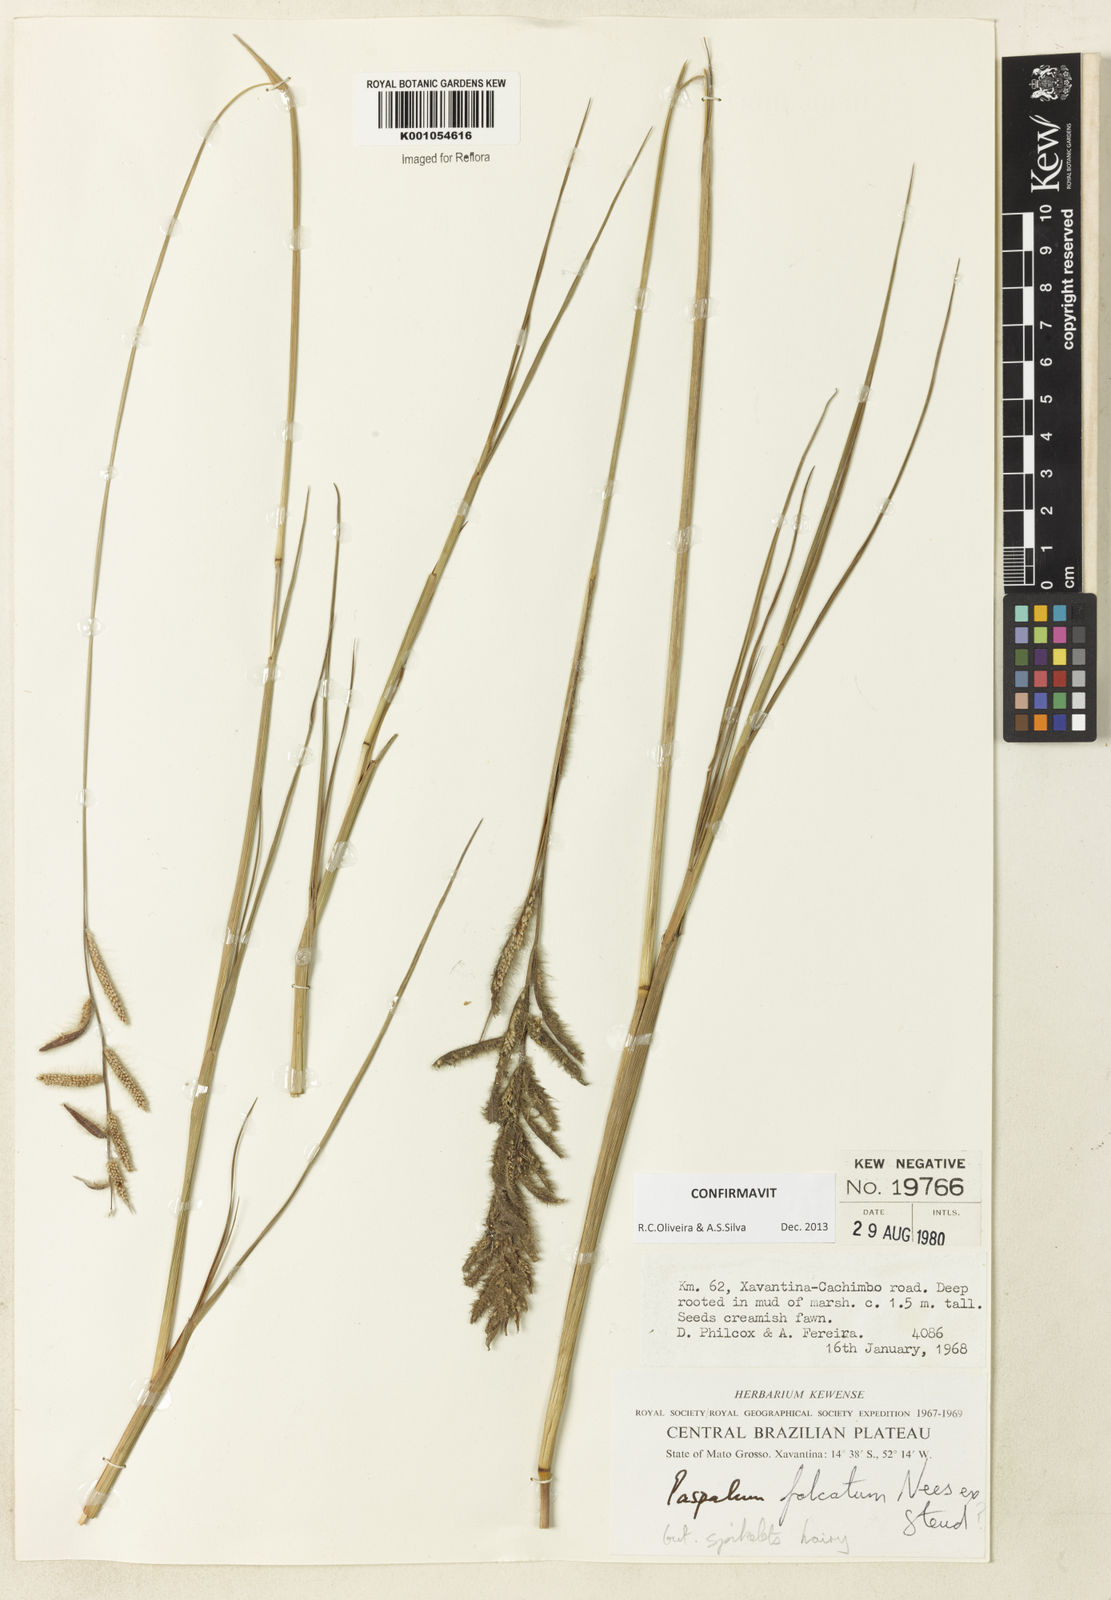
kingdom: Plantae
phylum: Tracheophyta
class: Liliopsida
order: Poales
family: Poaceae
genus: Paspalum
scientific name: Paspalum falcatum
